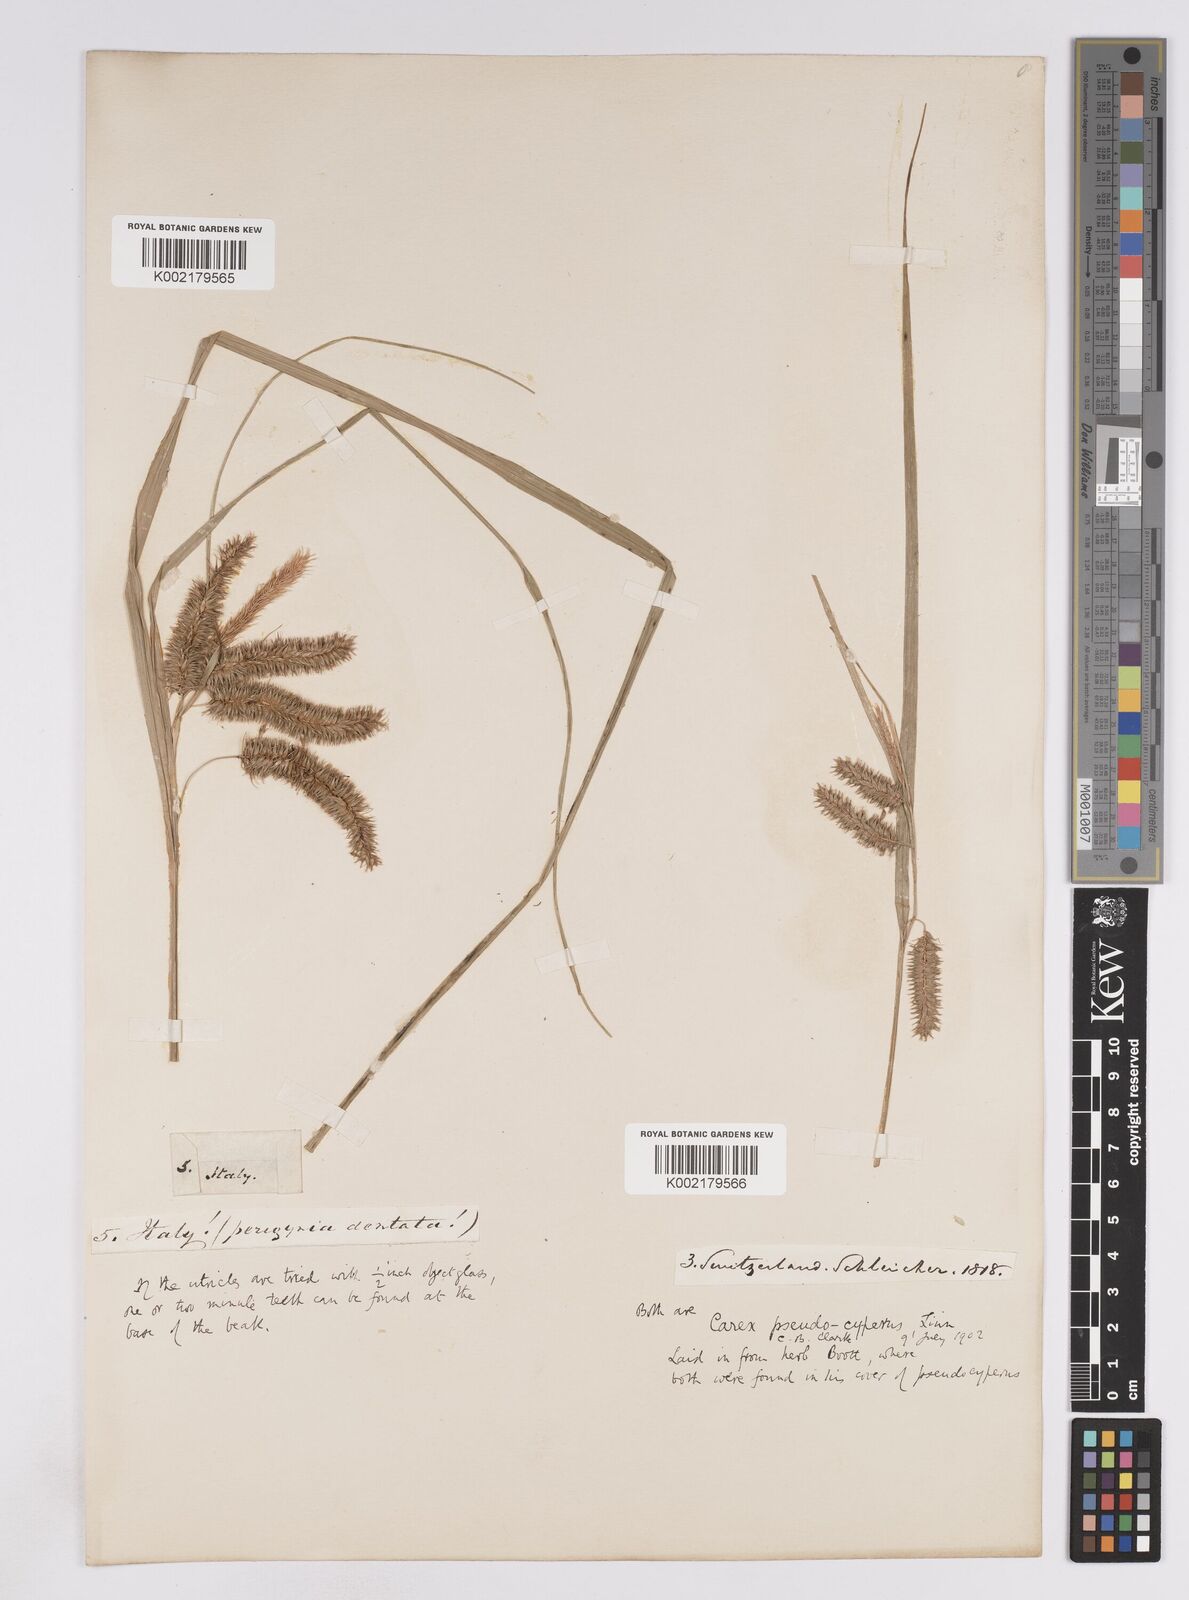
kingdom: Plantae
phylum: Tracheophyta
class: Liliopsida
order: Poales
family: Cyperaceae
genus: Carex
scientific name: Carex pseudocyperus
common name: Cyperus sedge
